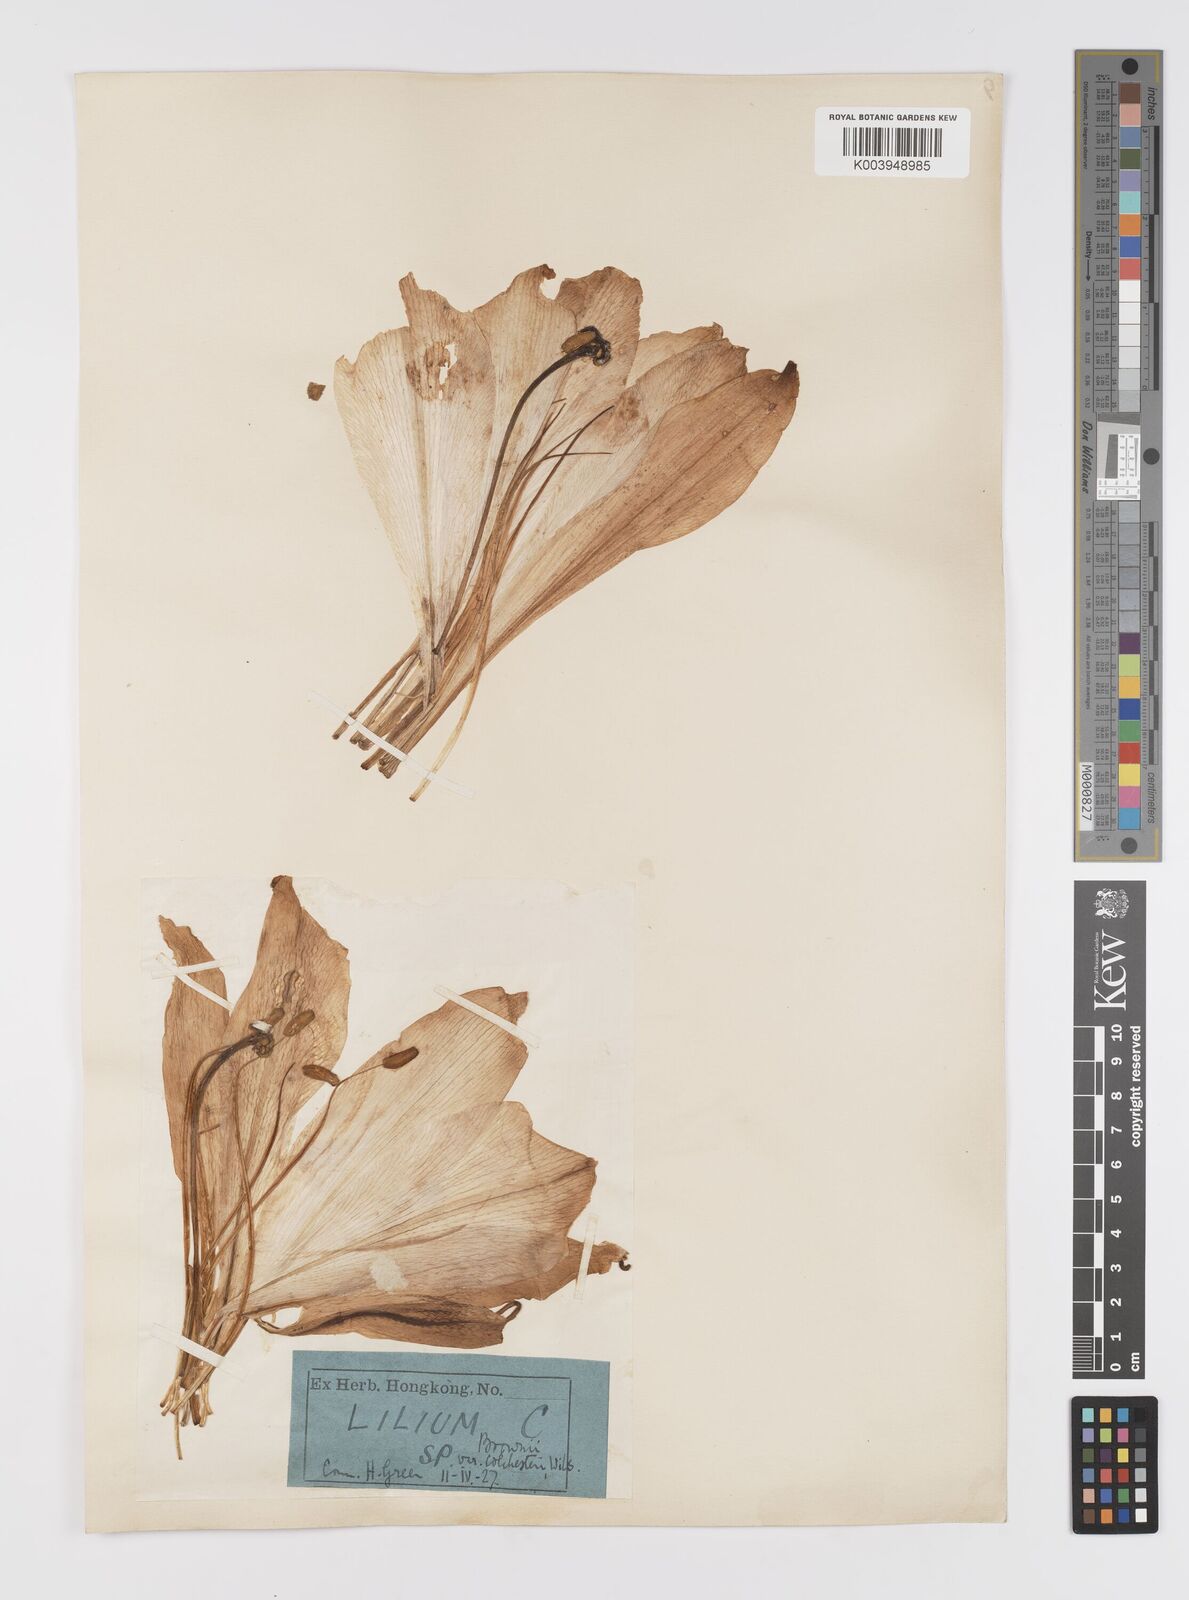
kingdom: Plantae
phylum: Tracheophyta
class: Liliopsida
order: Liliales
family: Liliaceae
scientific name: Liliaceae
